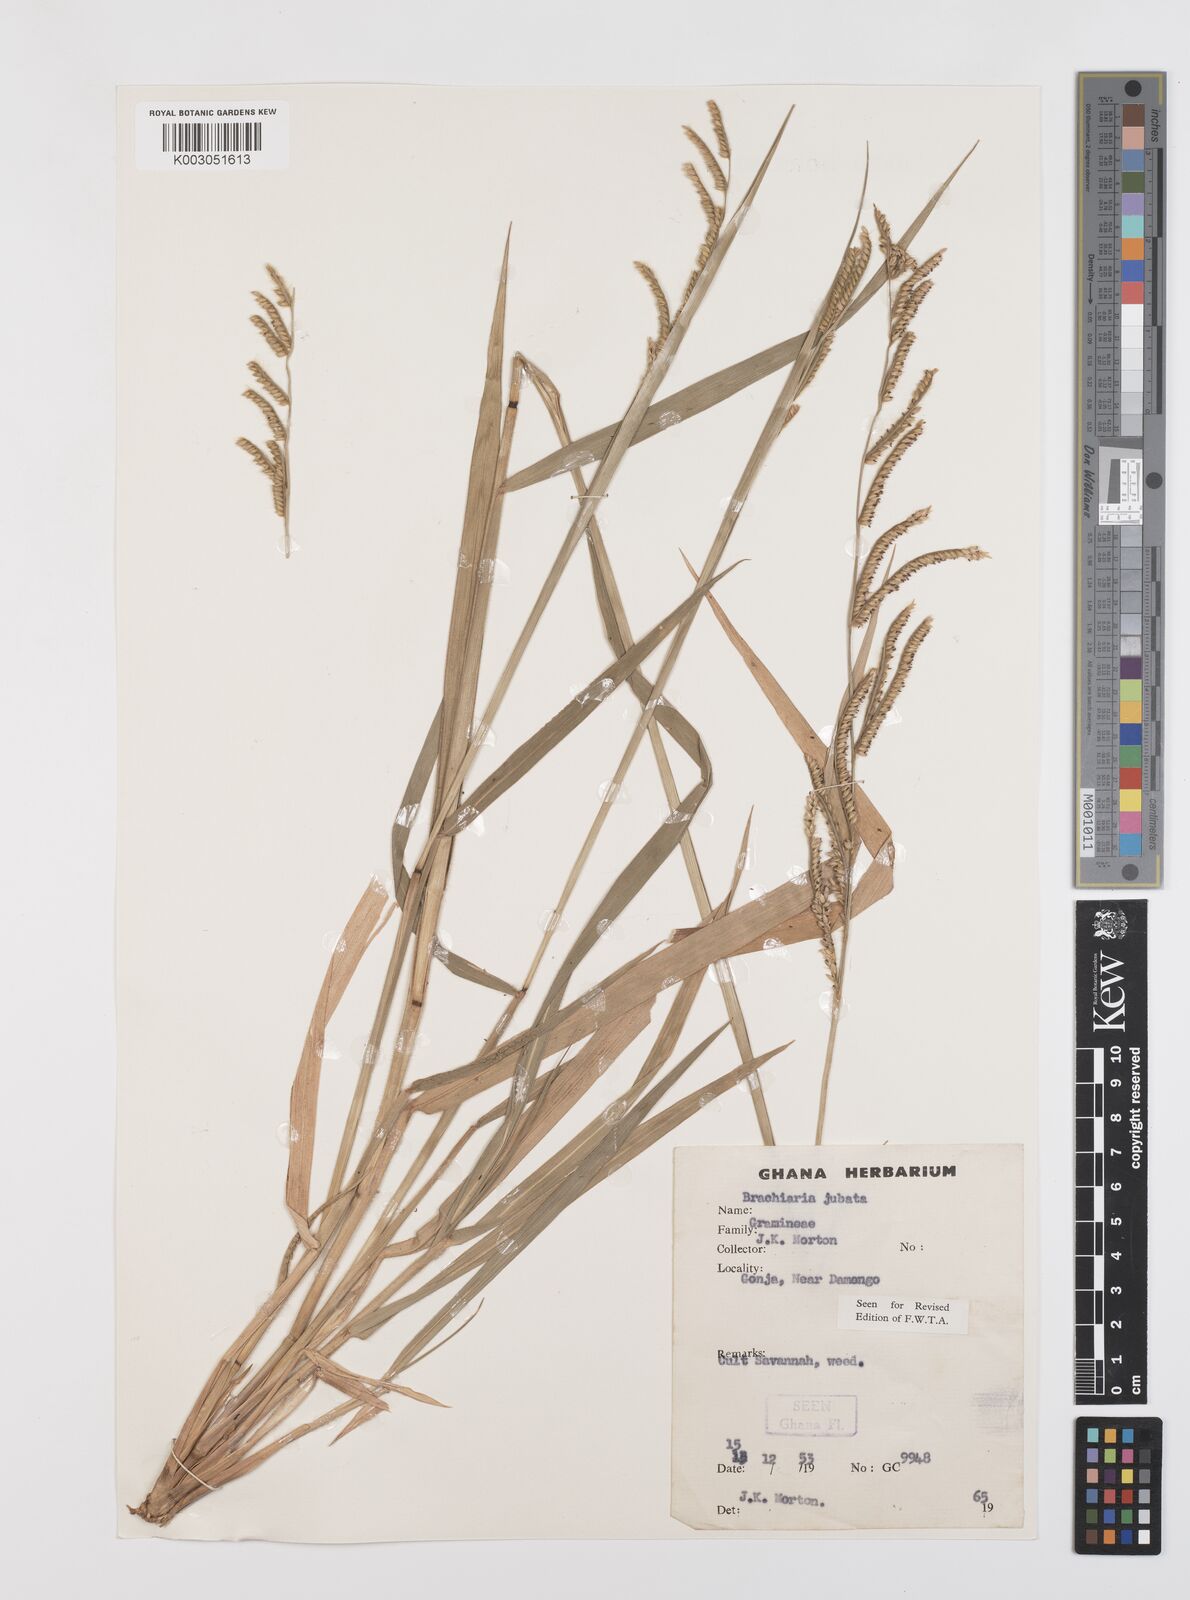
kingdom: Plantae
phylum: Tracheophyta
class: Liliopsida
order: Poales
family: Poaceae
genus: Urochloa
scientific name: Urochloa jubata
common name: Buffalograss
